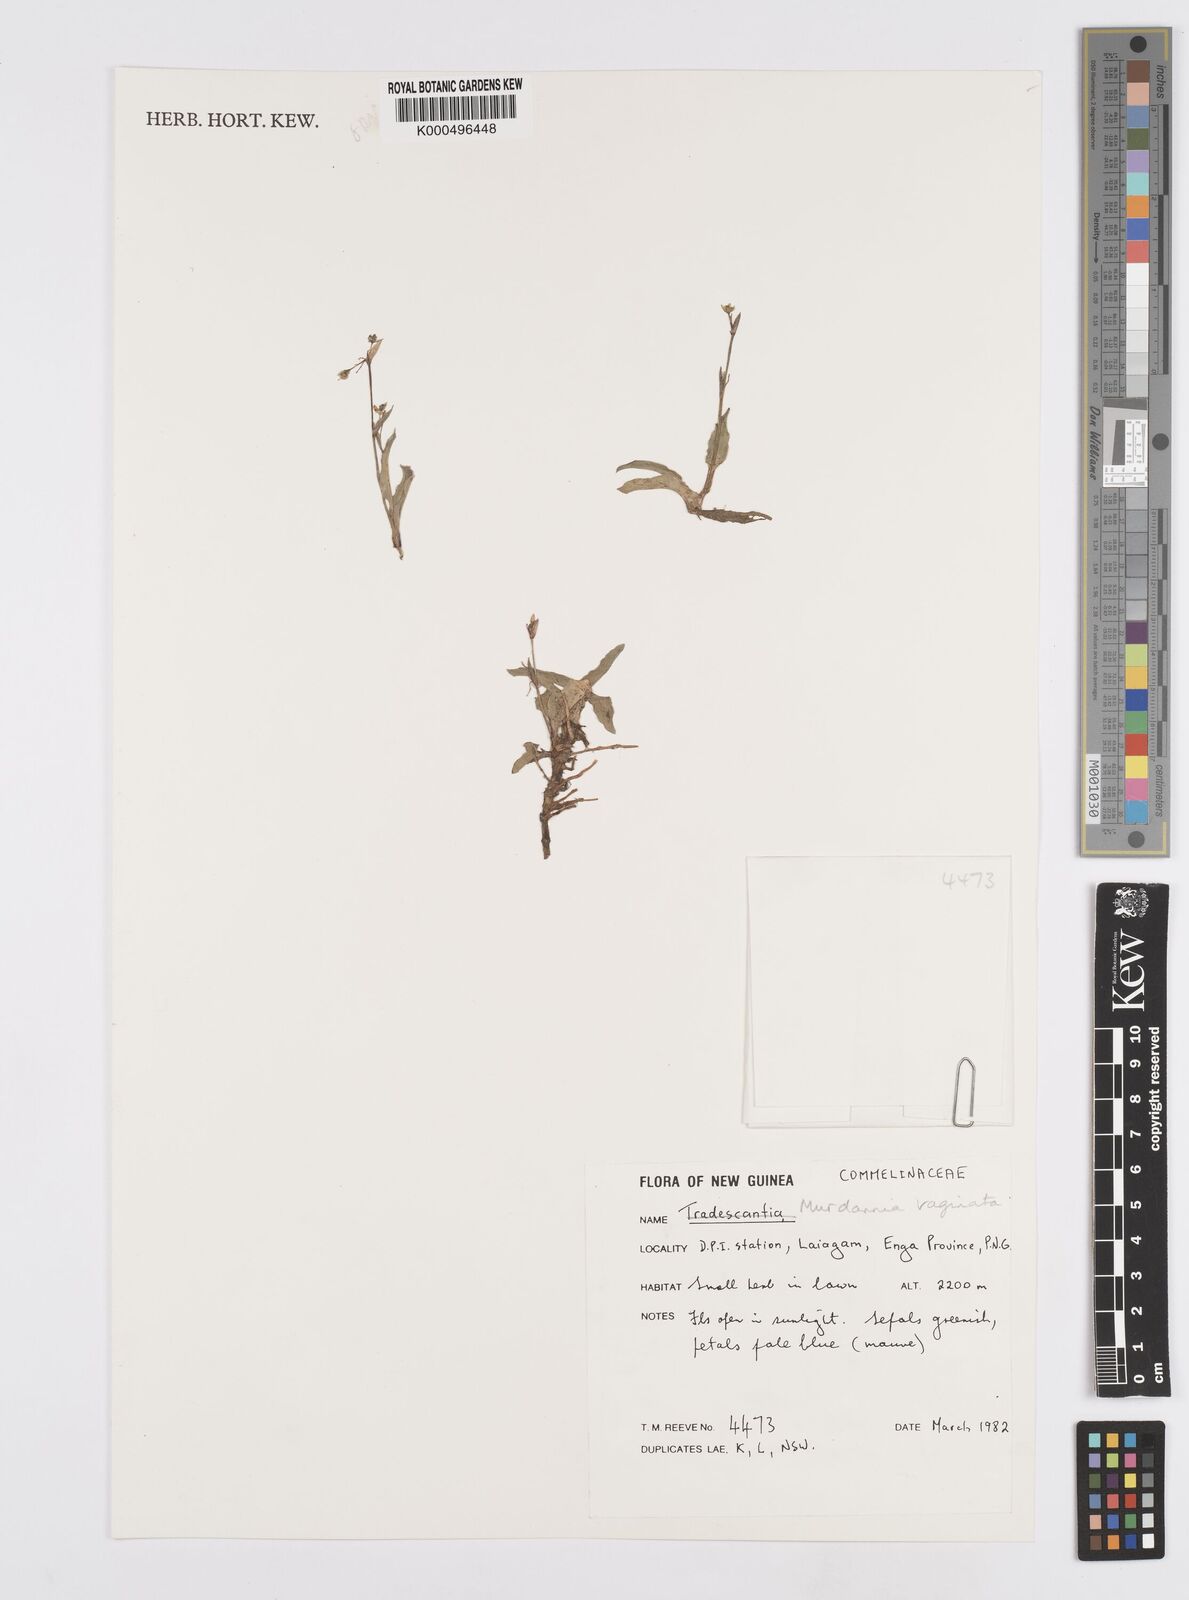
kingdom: Plantae
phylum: Tracheophyta
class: Liliopsida
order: Commelinales
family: Commelinaceae
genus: Murdannia
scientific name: Murdannia
